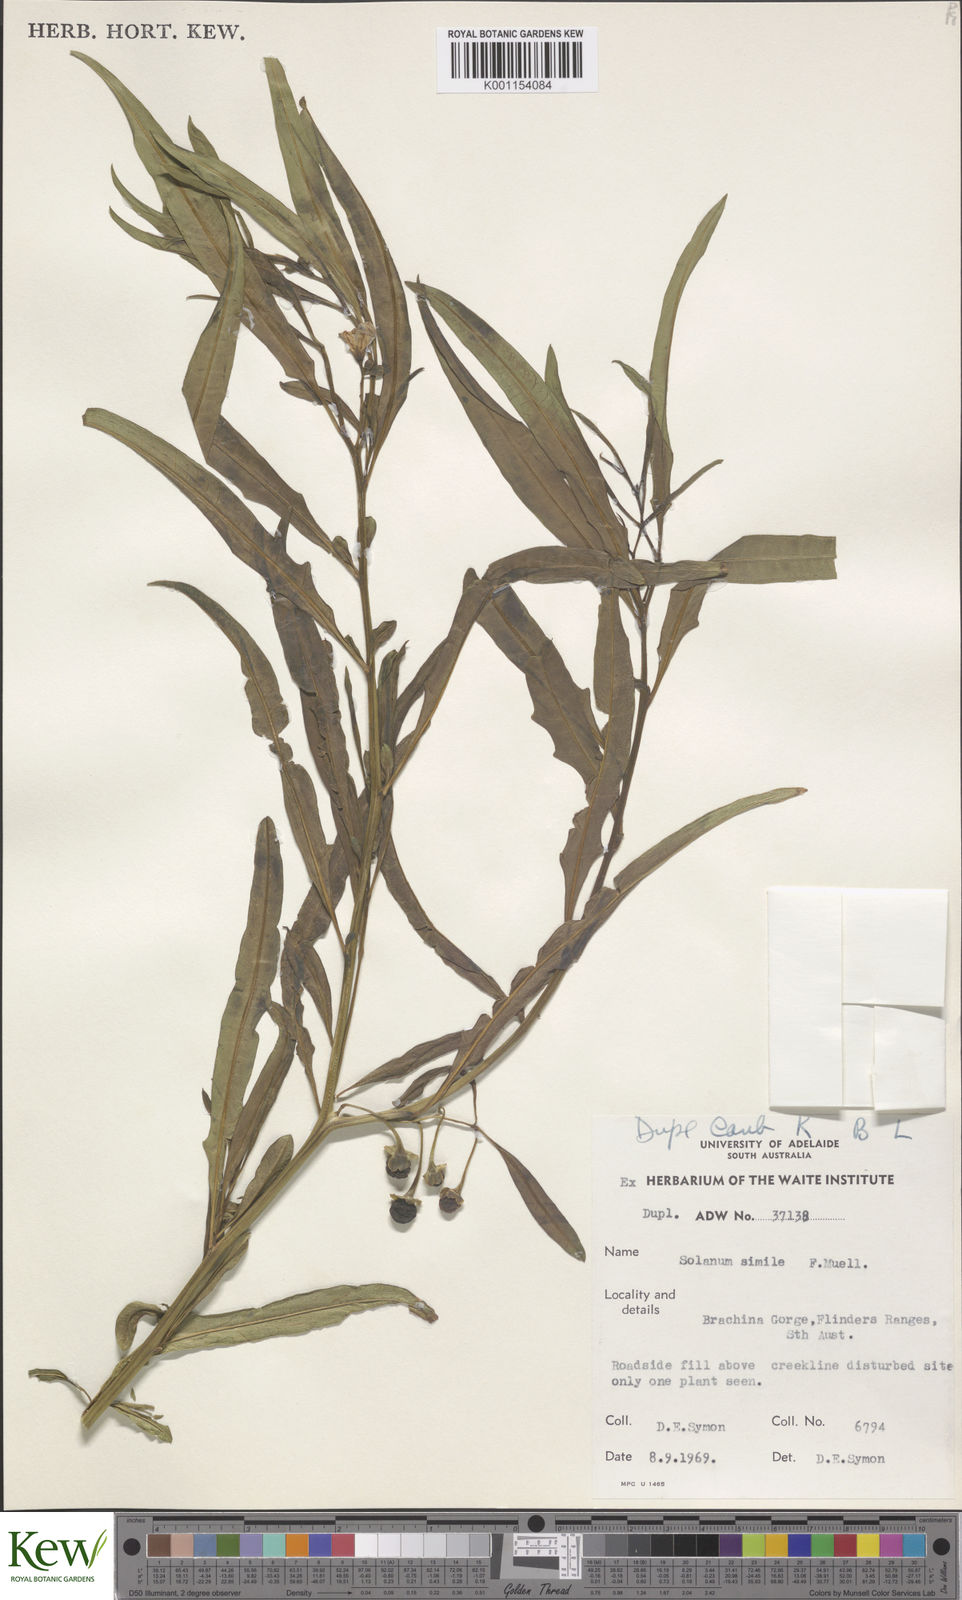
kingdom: Plantae
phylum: Tracheophyta
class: Magnoliopsida
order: Solanales
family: Solanaceae
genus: Solanum
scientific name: Solanum simile
